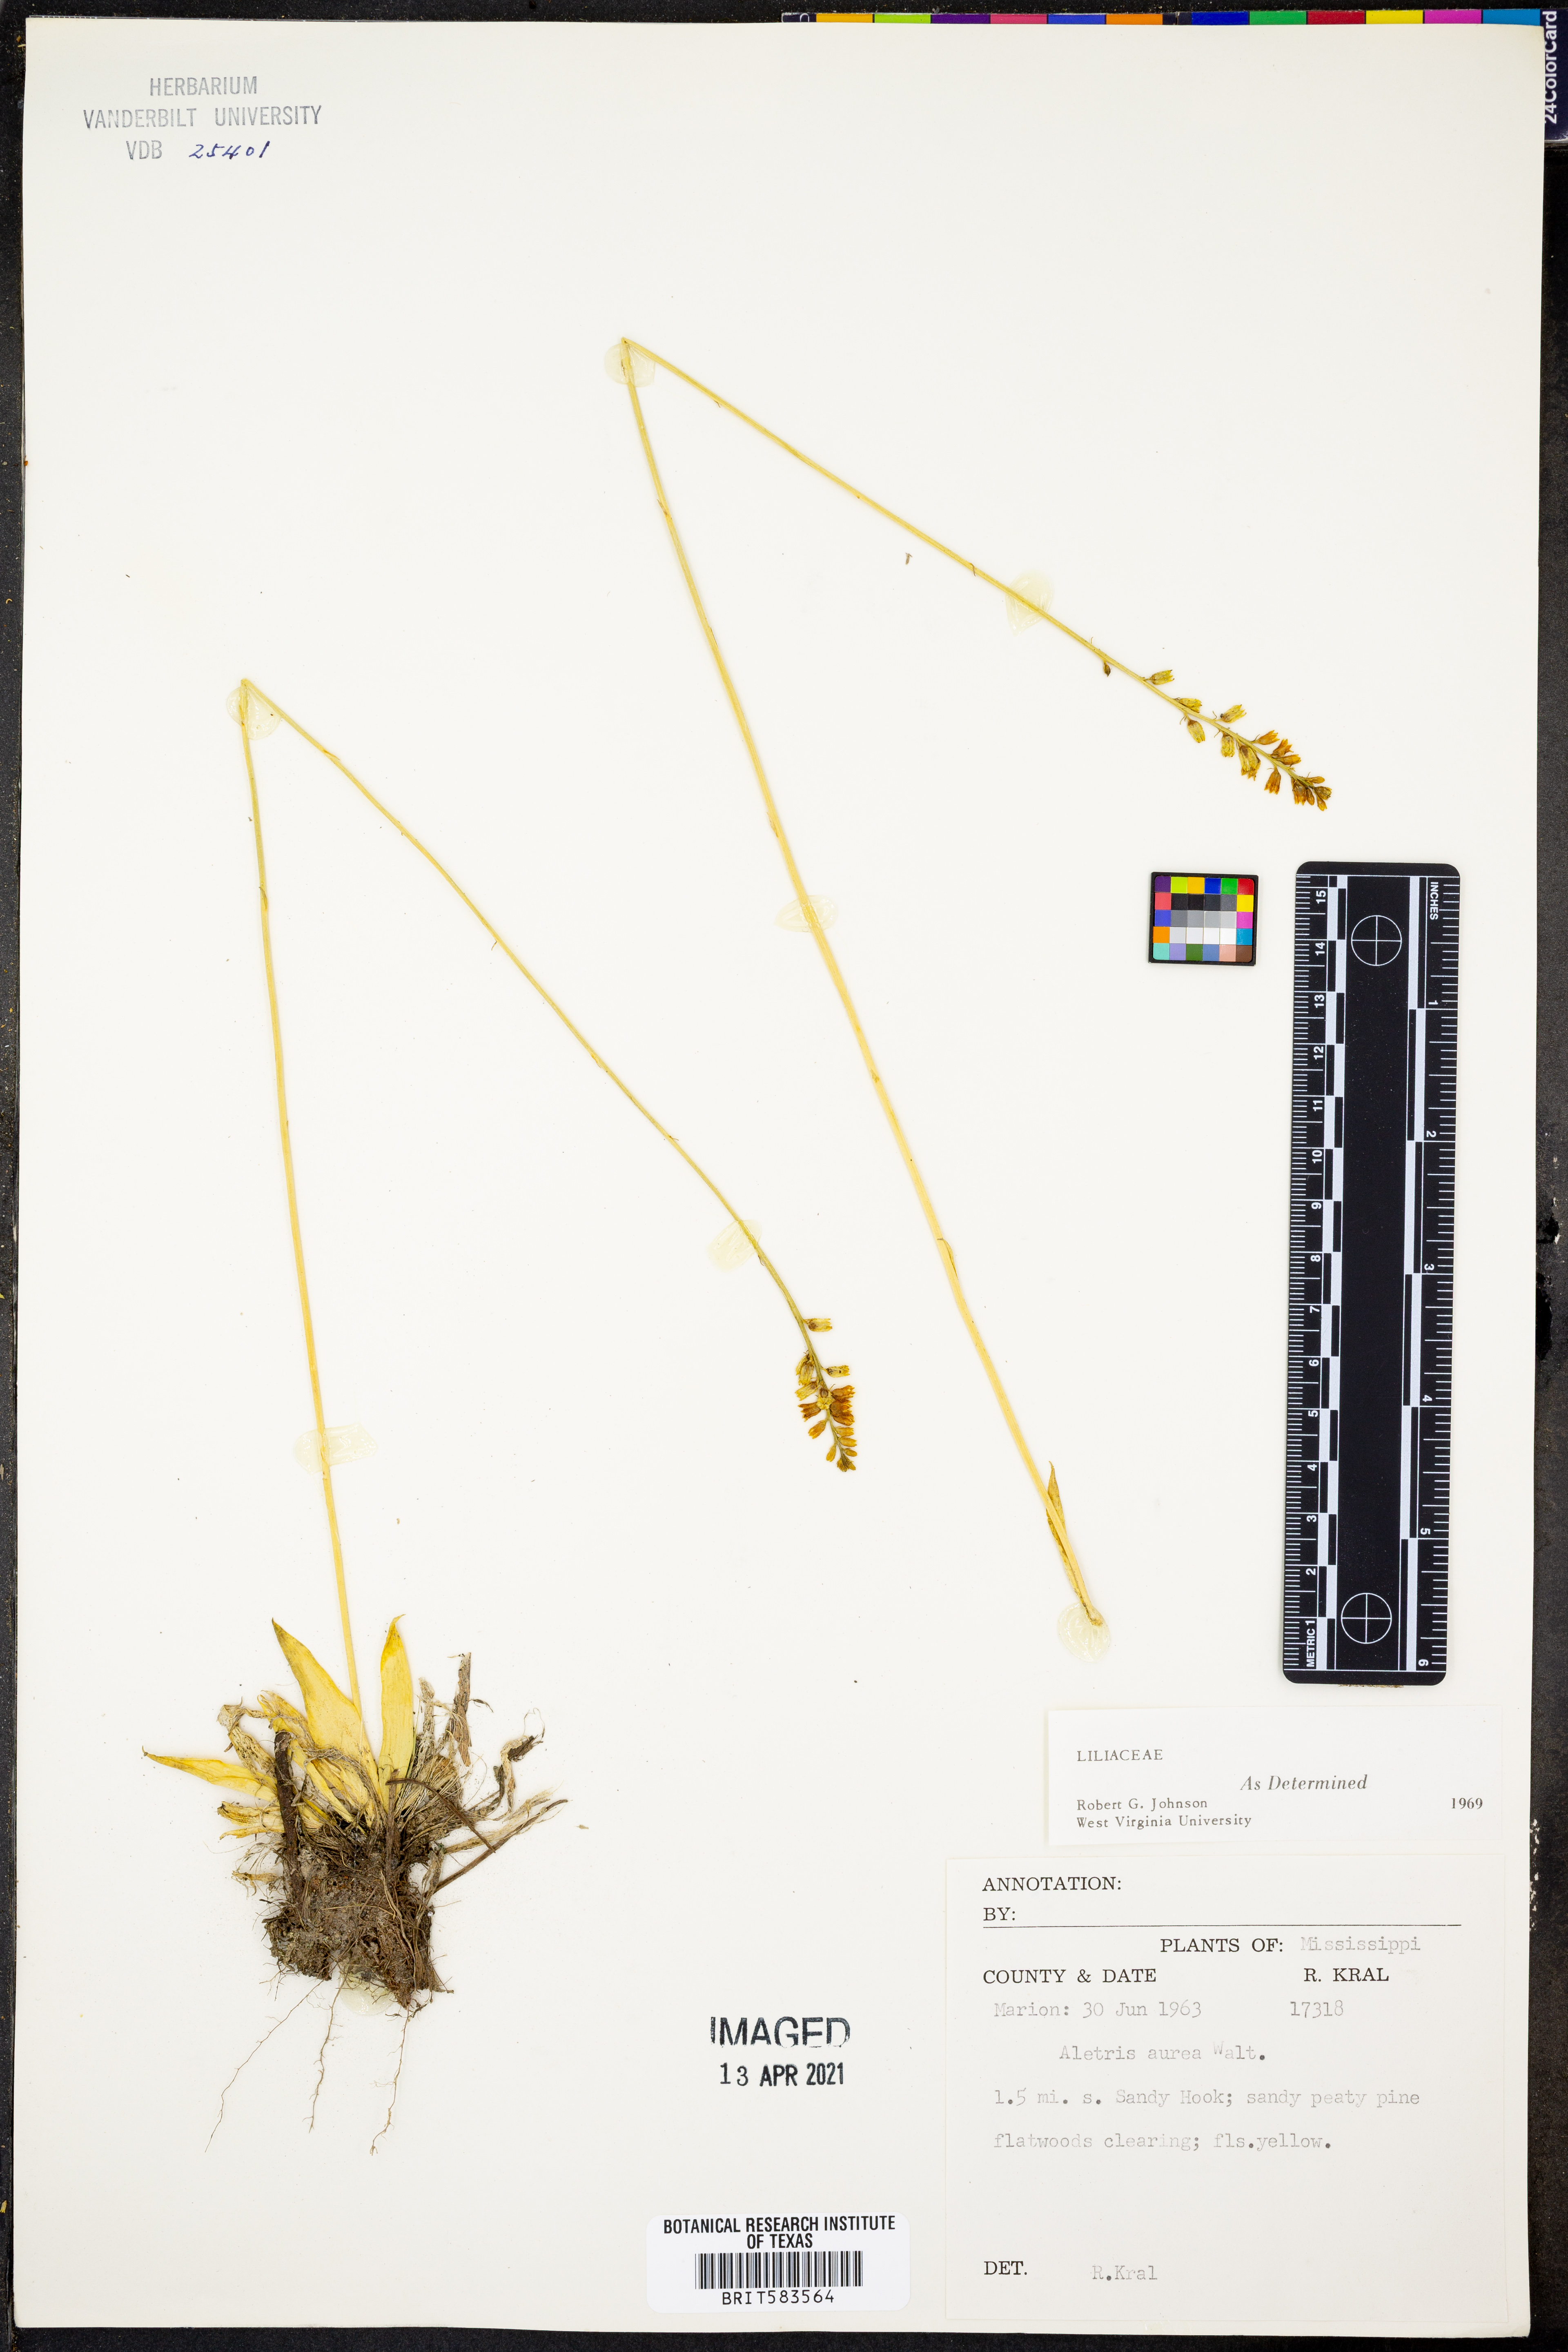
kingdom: Plantae
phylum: Tracheophyta
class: Liliopsida
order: Dioscoreales
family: Nartheciaceae
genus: Aletris
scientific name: Aletris aurea
